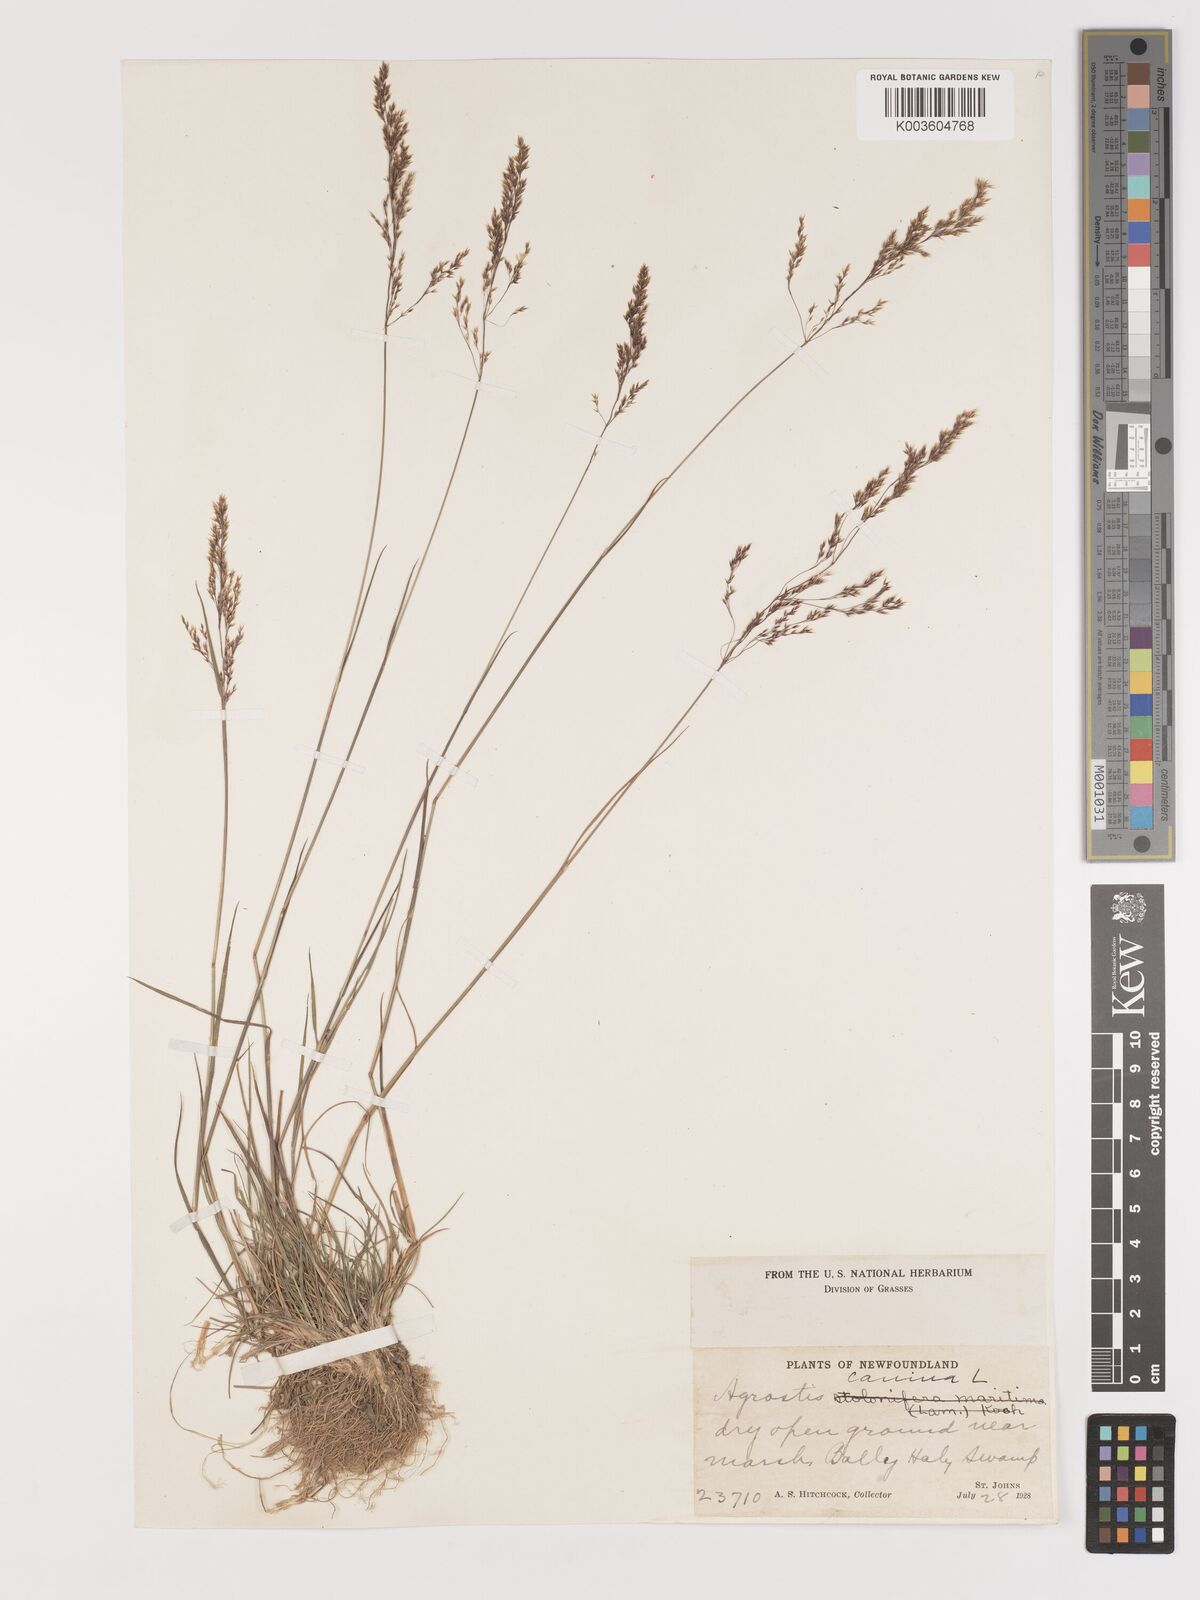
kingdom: Plantae
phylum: Tracheophyta
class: Liliopsida
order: Poales
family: Poaceae
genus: Agrostis
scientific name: Agrostis canina
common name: Velvet bent
